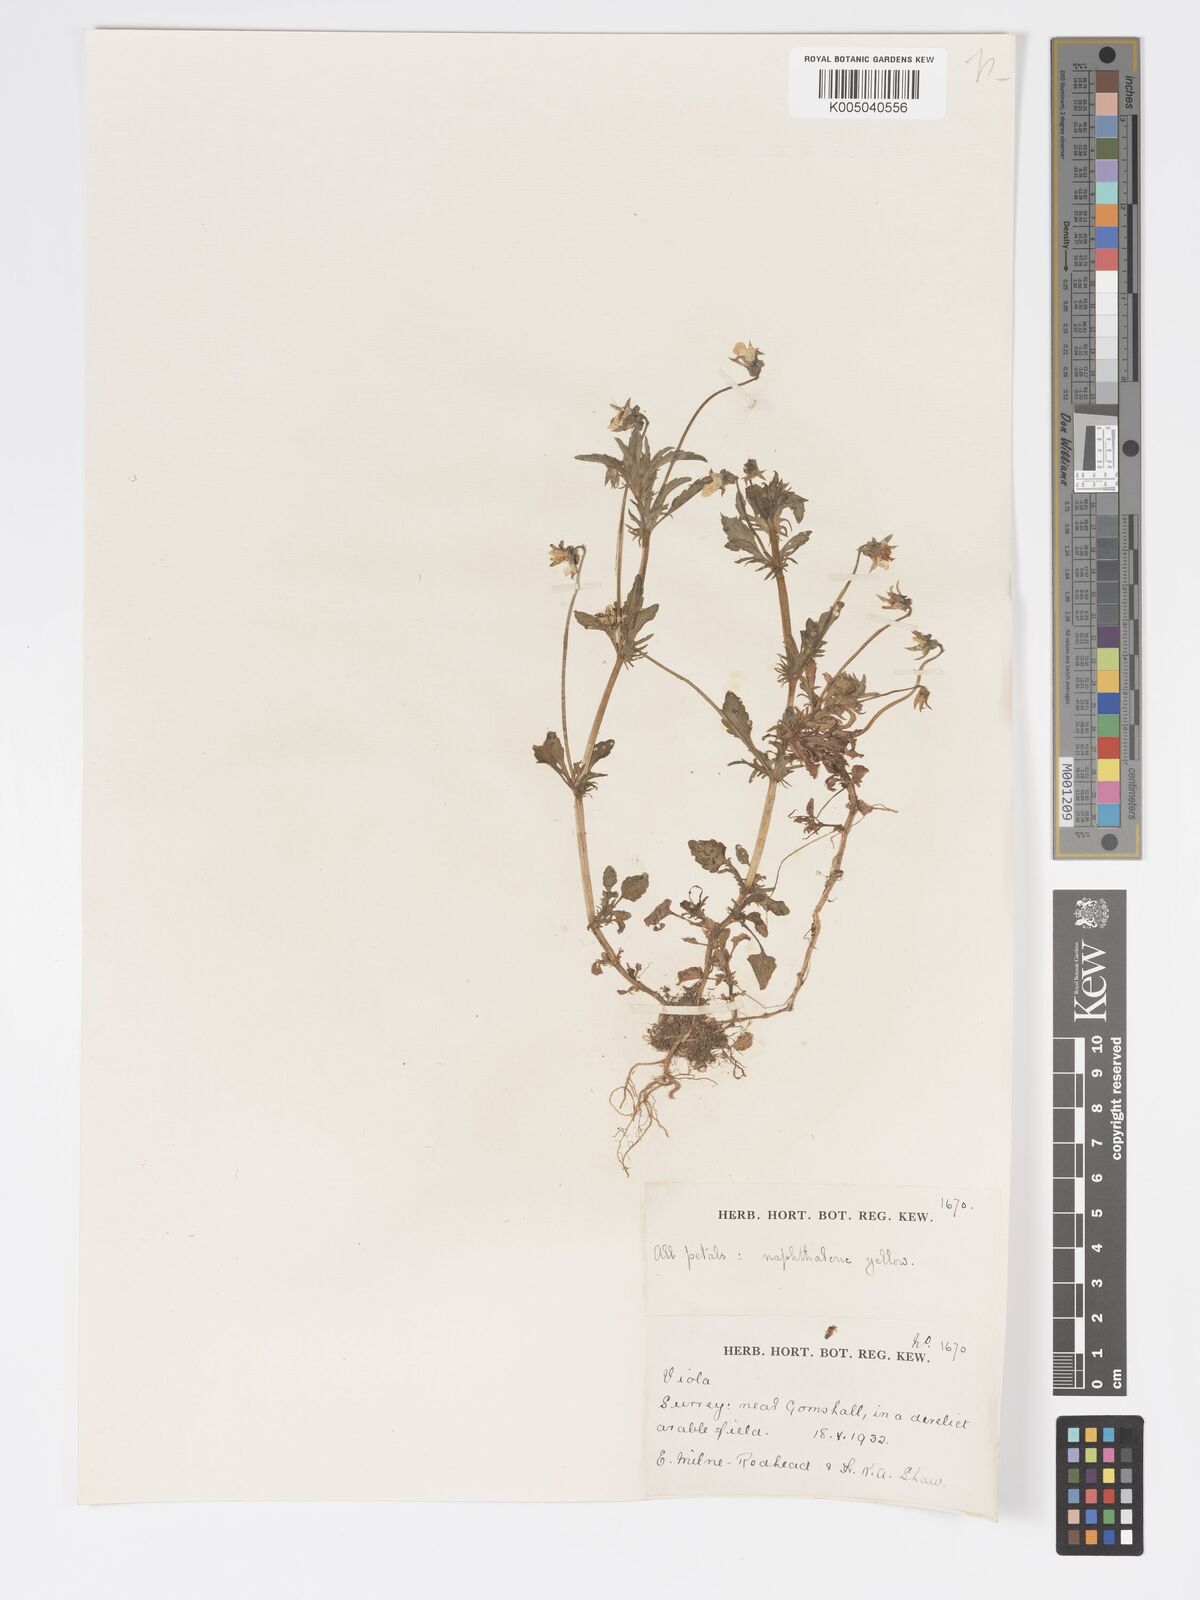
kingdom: Plantae
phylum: Tracheophyta
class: Magnoliopsida
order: Malpighiales
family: Violaceae
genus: Viola
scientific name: Viola
